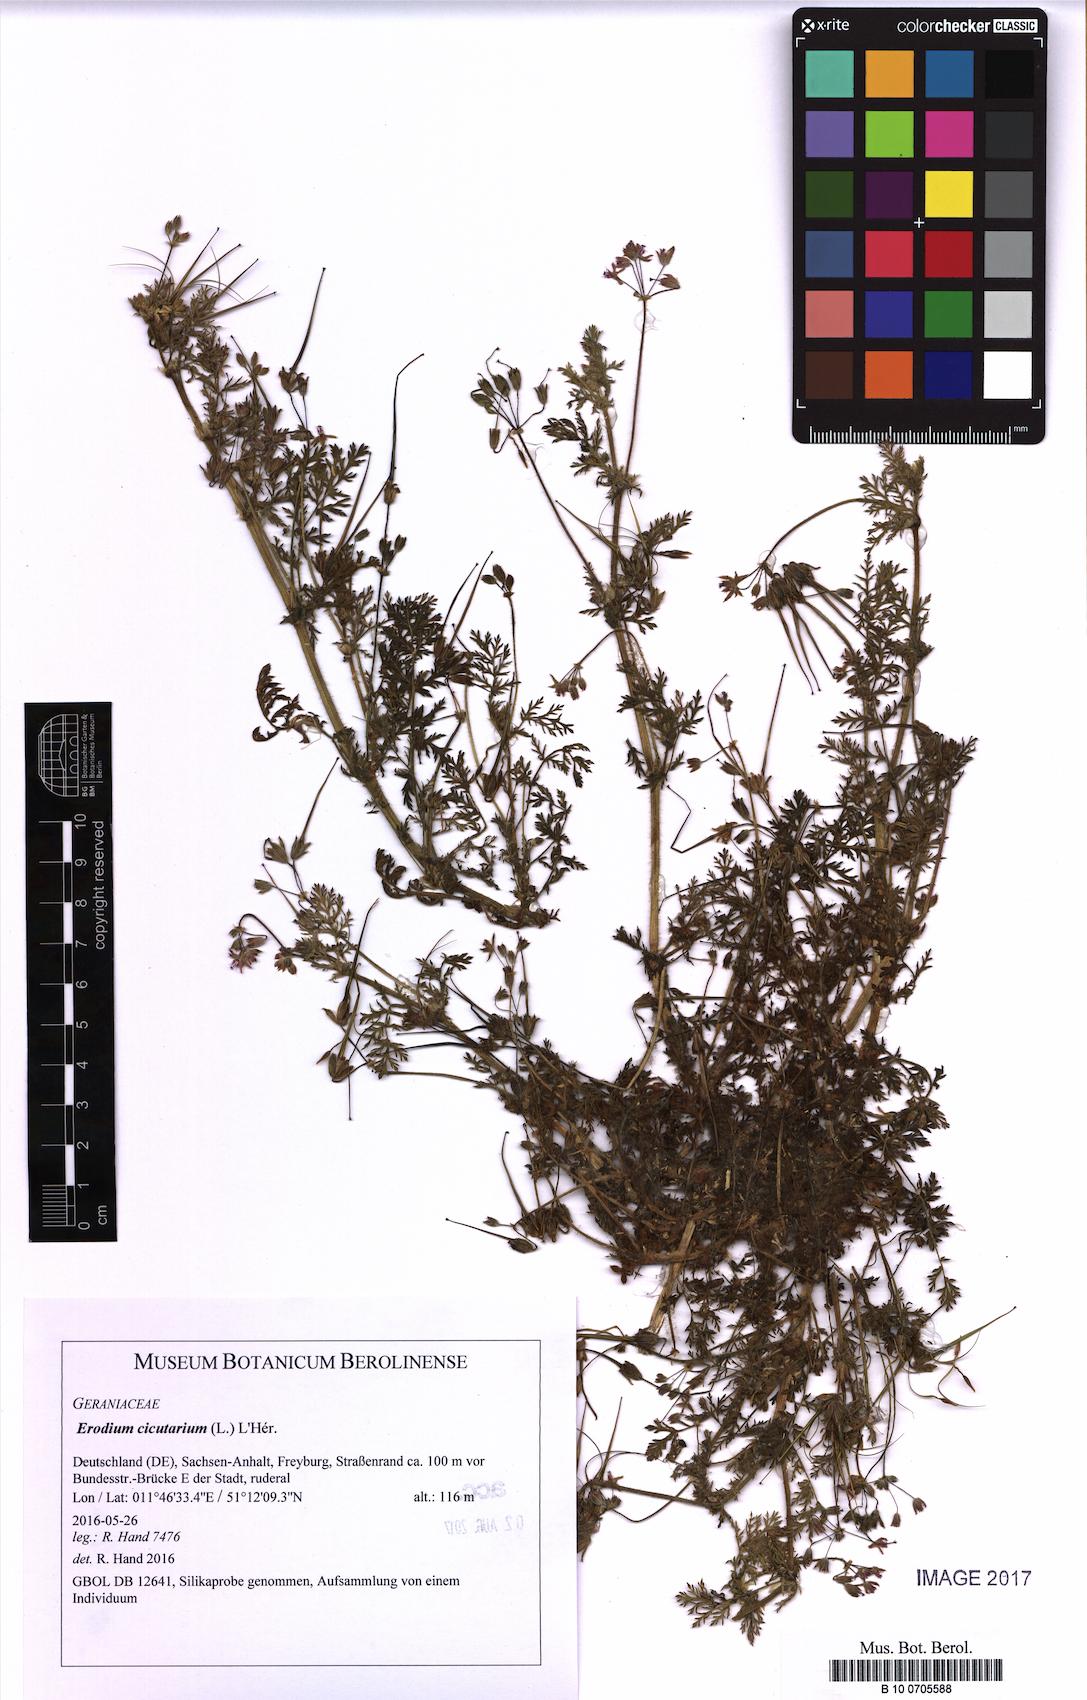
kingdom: Plantae
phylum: Tracheophyta
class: Magnoliopsida
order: Geraniales
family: Geraniaceae
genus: Erodium
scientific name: Erodium cicutarium
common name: Common stork's-bill
